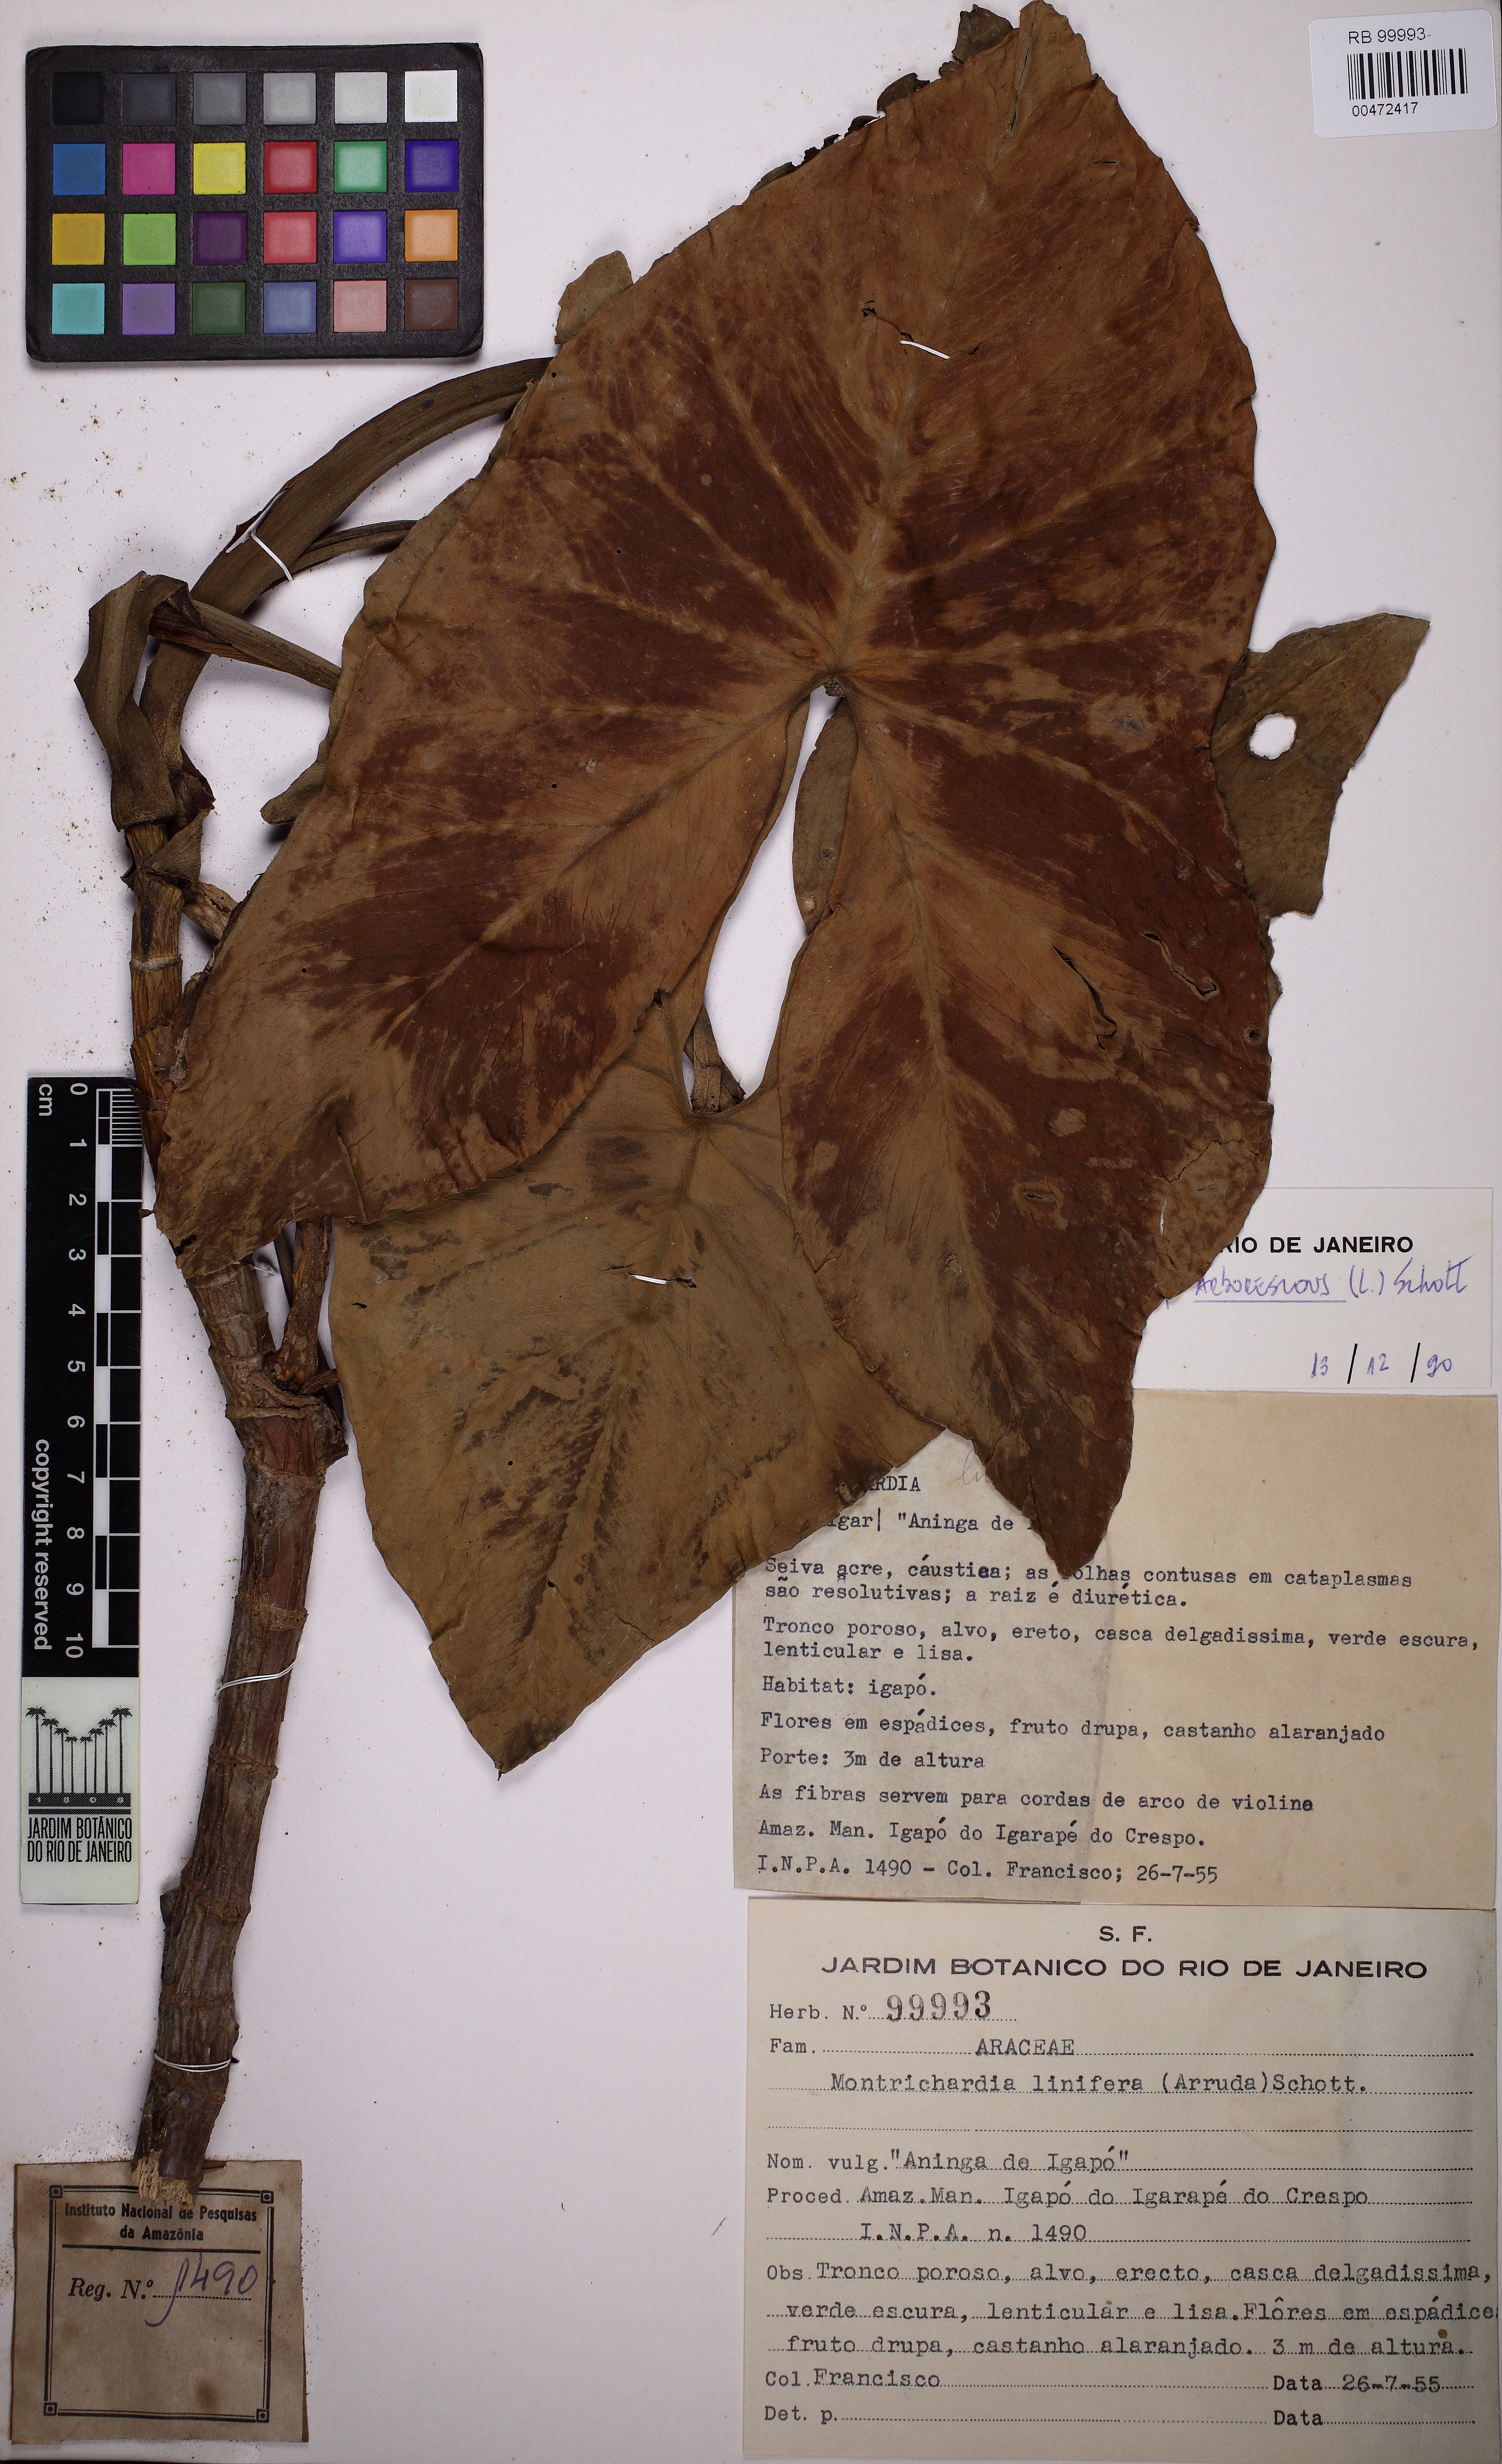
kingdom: Plantae
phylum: Tracheophyta
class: Liliopsida
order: Alismatales
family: Araceae
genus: Montrichardia
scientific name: Montrichardia arborescens
